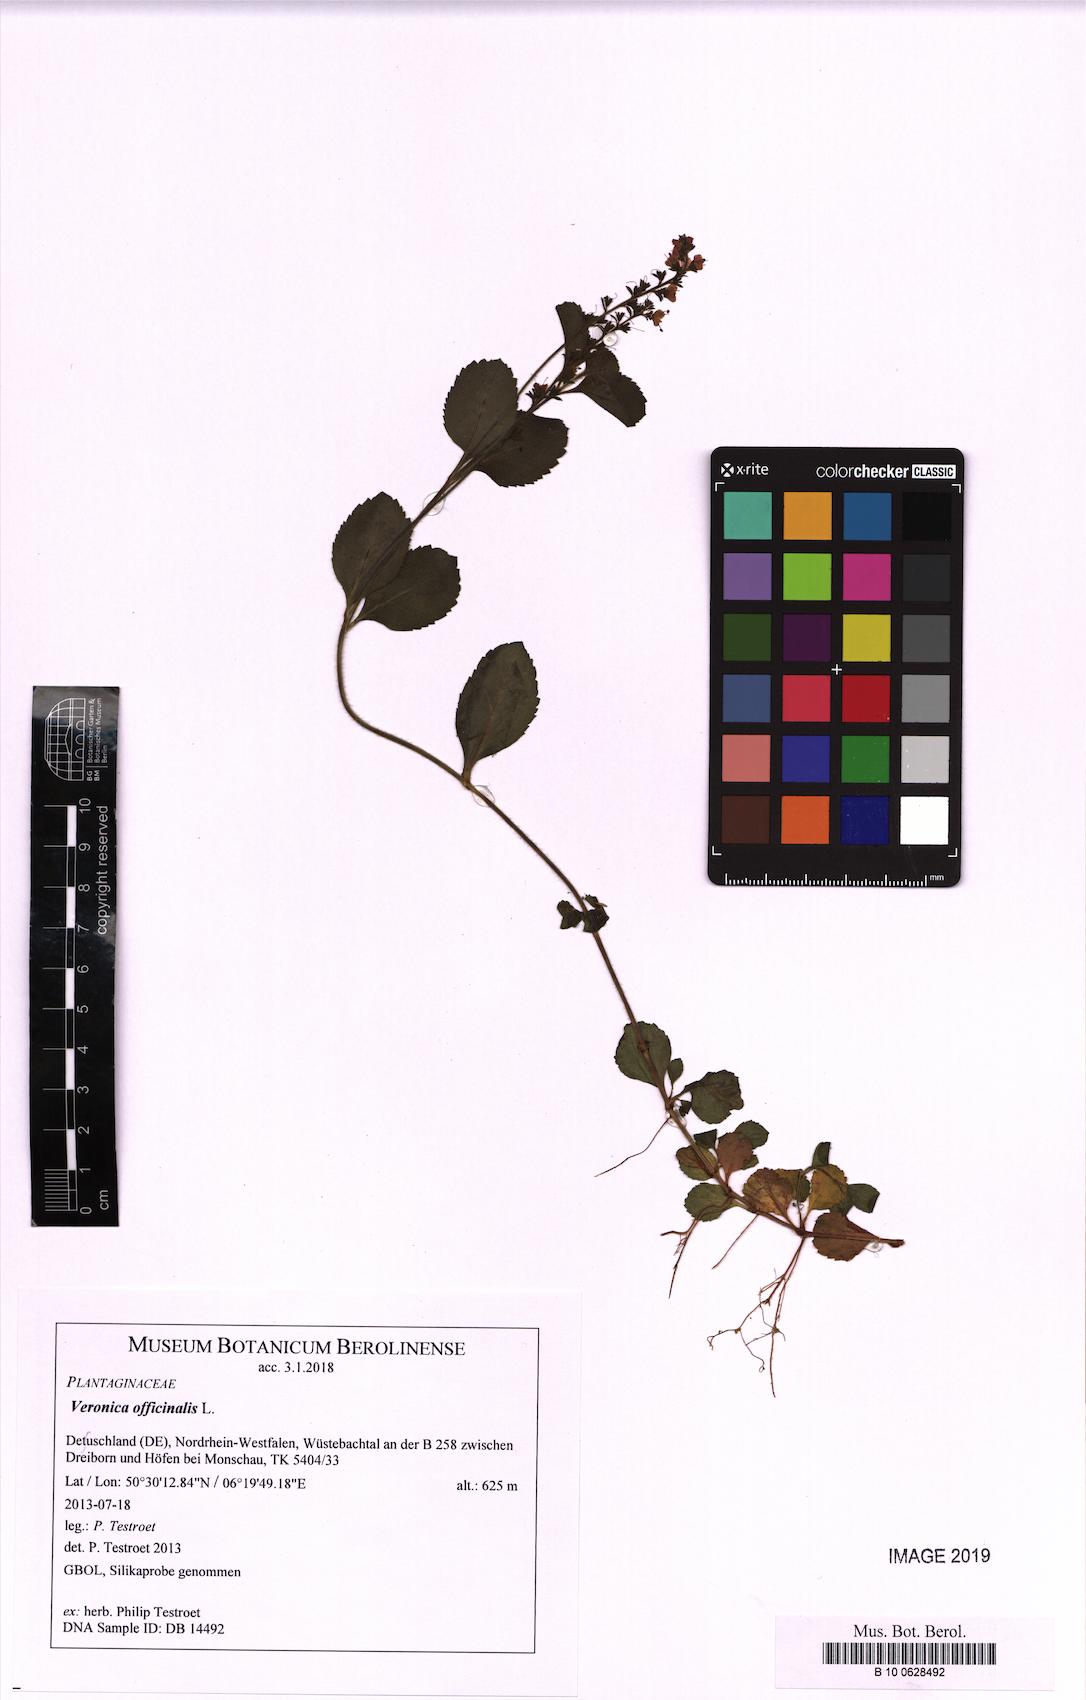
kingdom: Plantae
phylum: Tracheophyta
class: Magnoliopsida
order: Lamiales
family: Plantaginaceae
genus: Veronica
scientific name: Veronica officinalis
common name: Common speedwell
